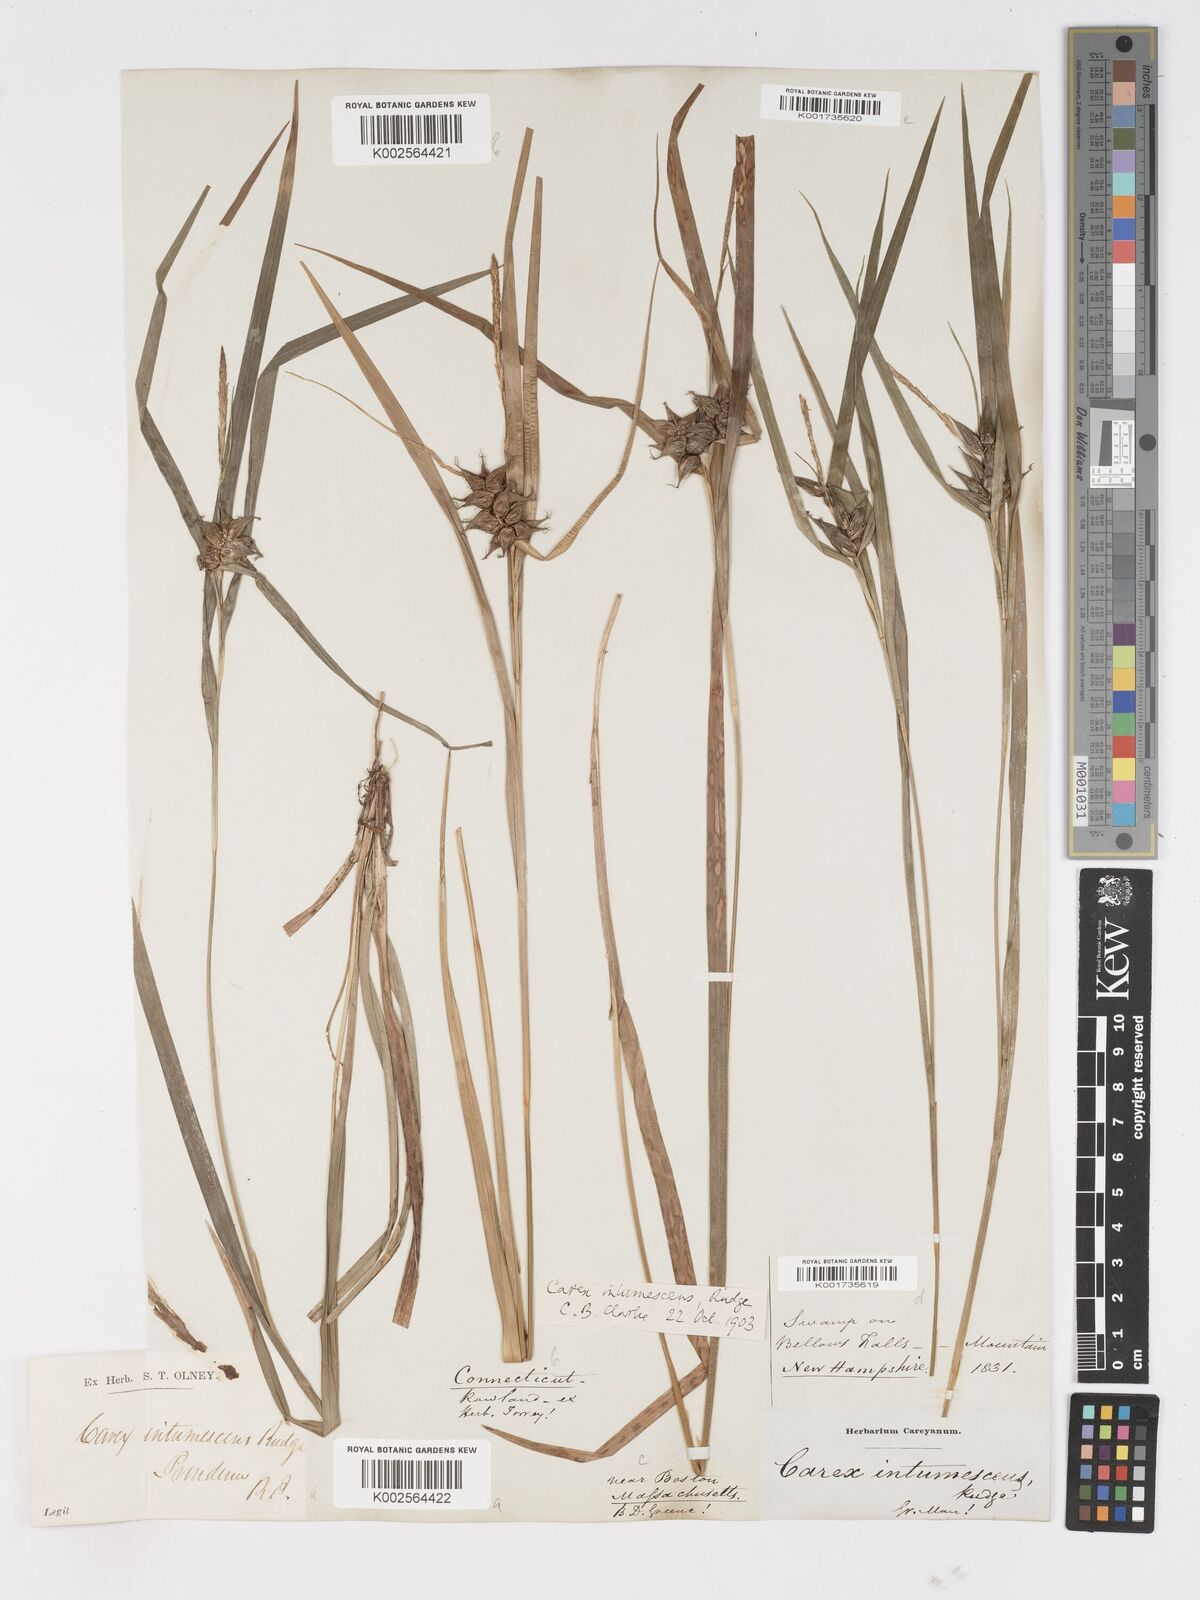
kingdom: Plantae
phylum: Tracheophyta
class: Liliopsida
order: Poales
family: Cyperaceae
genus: Carex
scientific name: Carex intumescens
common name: Greater bladder sedge
